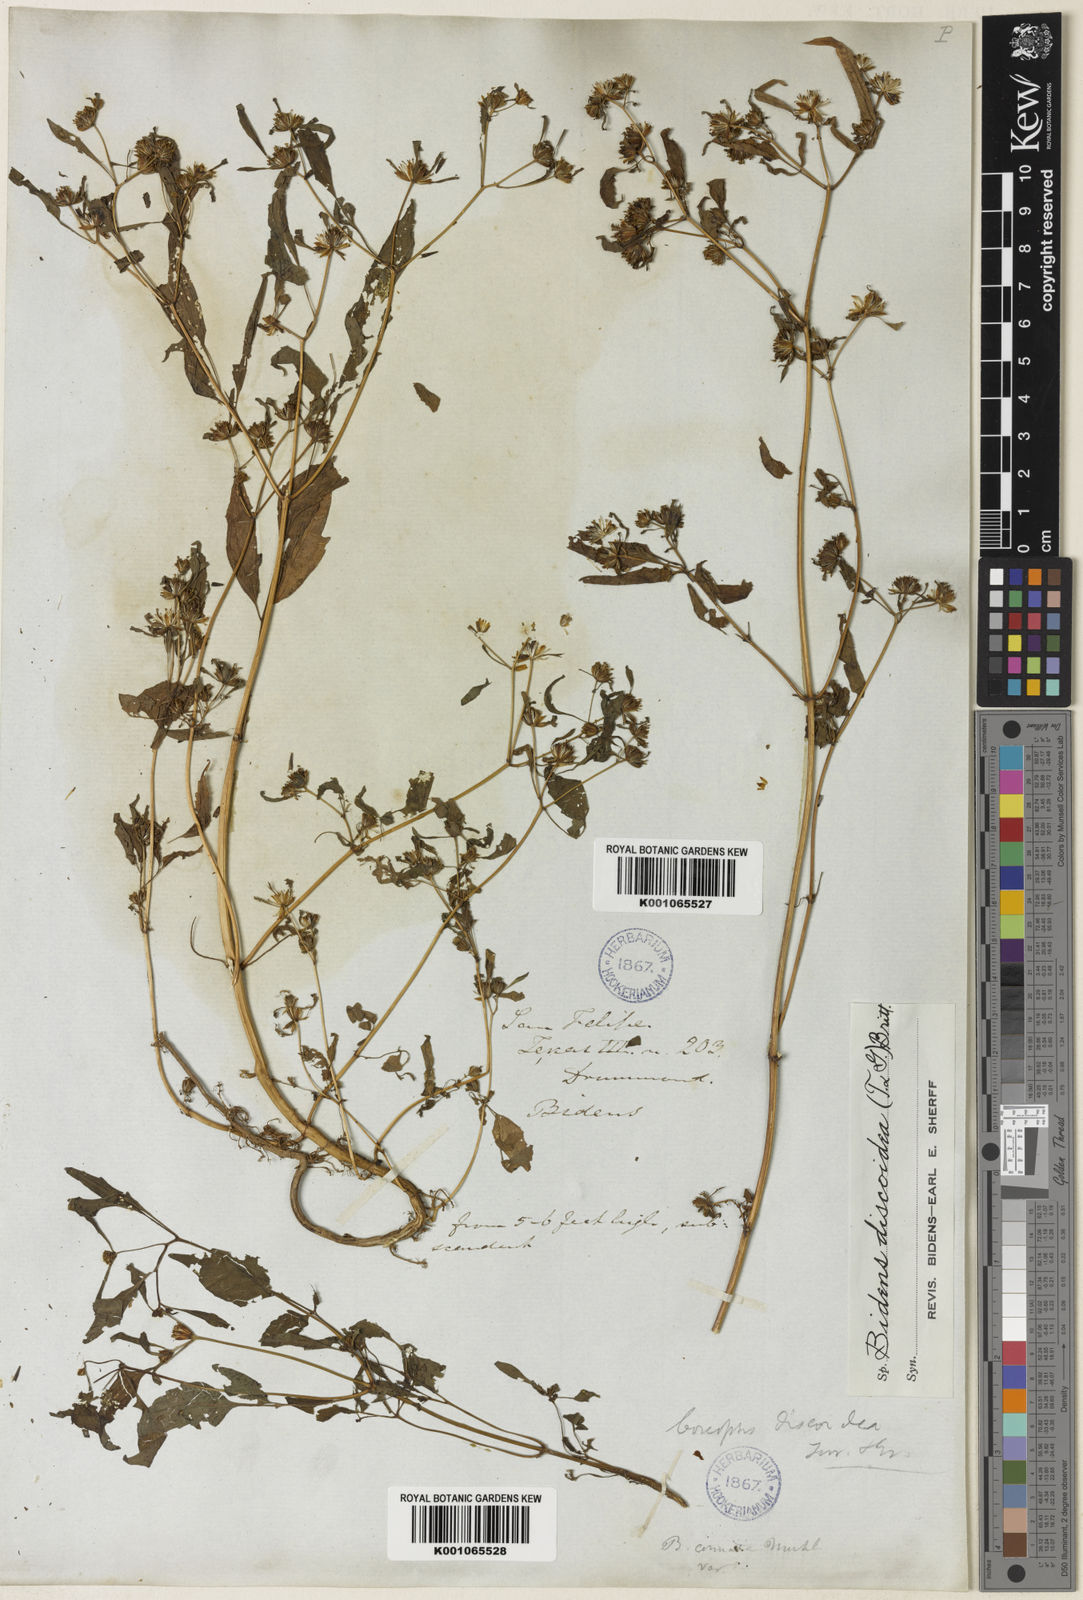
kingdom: Plantae
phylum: Tracheophyta
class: Magnoliopsida
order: Asterales
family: Asteraceae
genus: Bidens
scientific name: Bidens discoidea
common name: Discoide beggarticks
